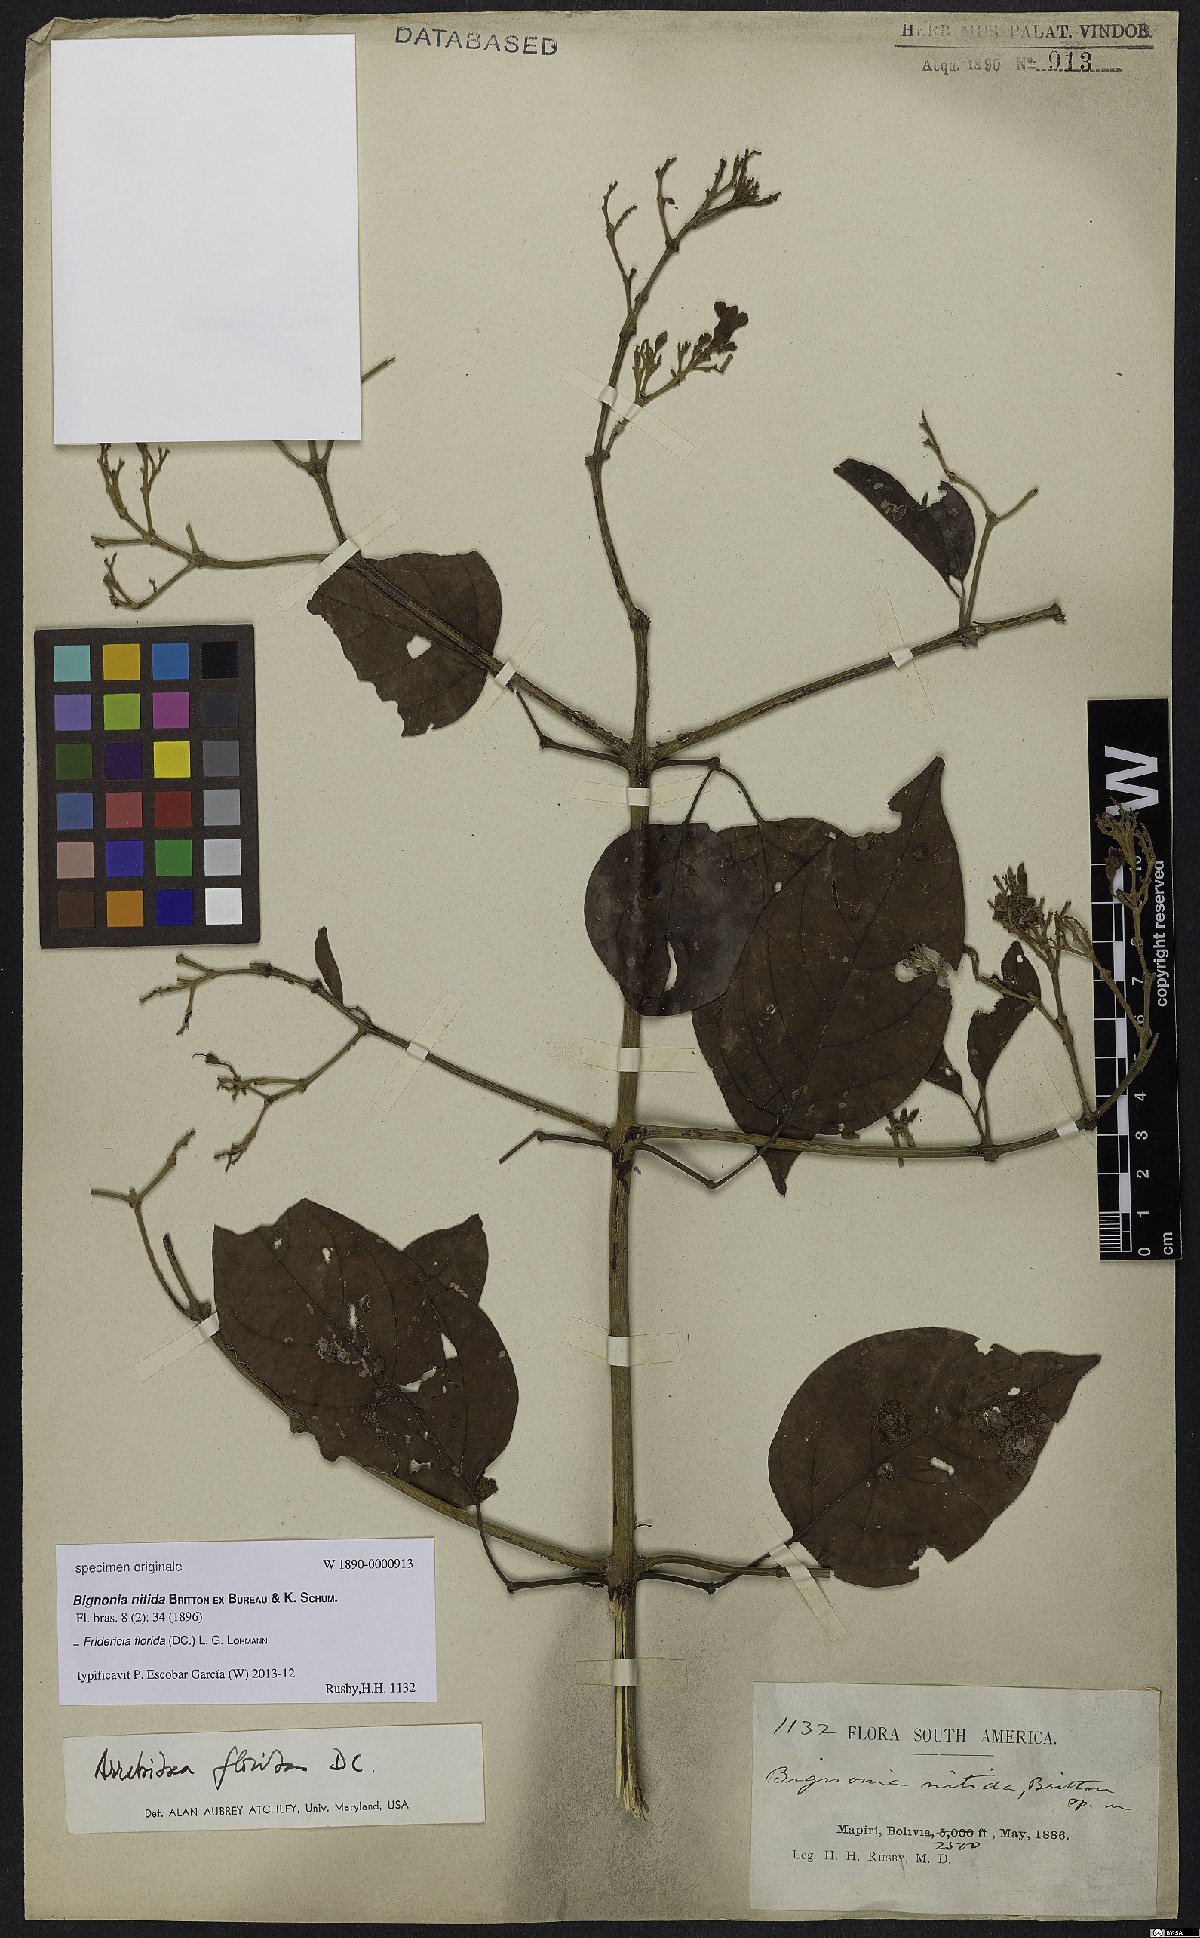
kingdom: Plantae
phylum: Tracheophyta
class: Magnoliopsida
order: Lamiales
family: Bignoniaceae
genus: Fridericia
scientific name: Fridericia florida
